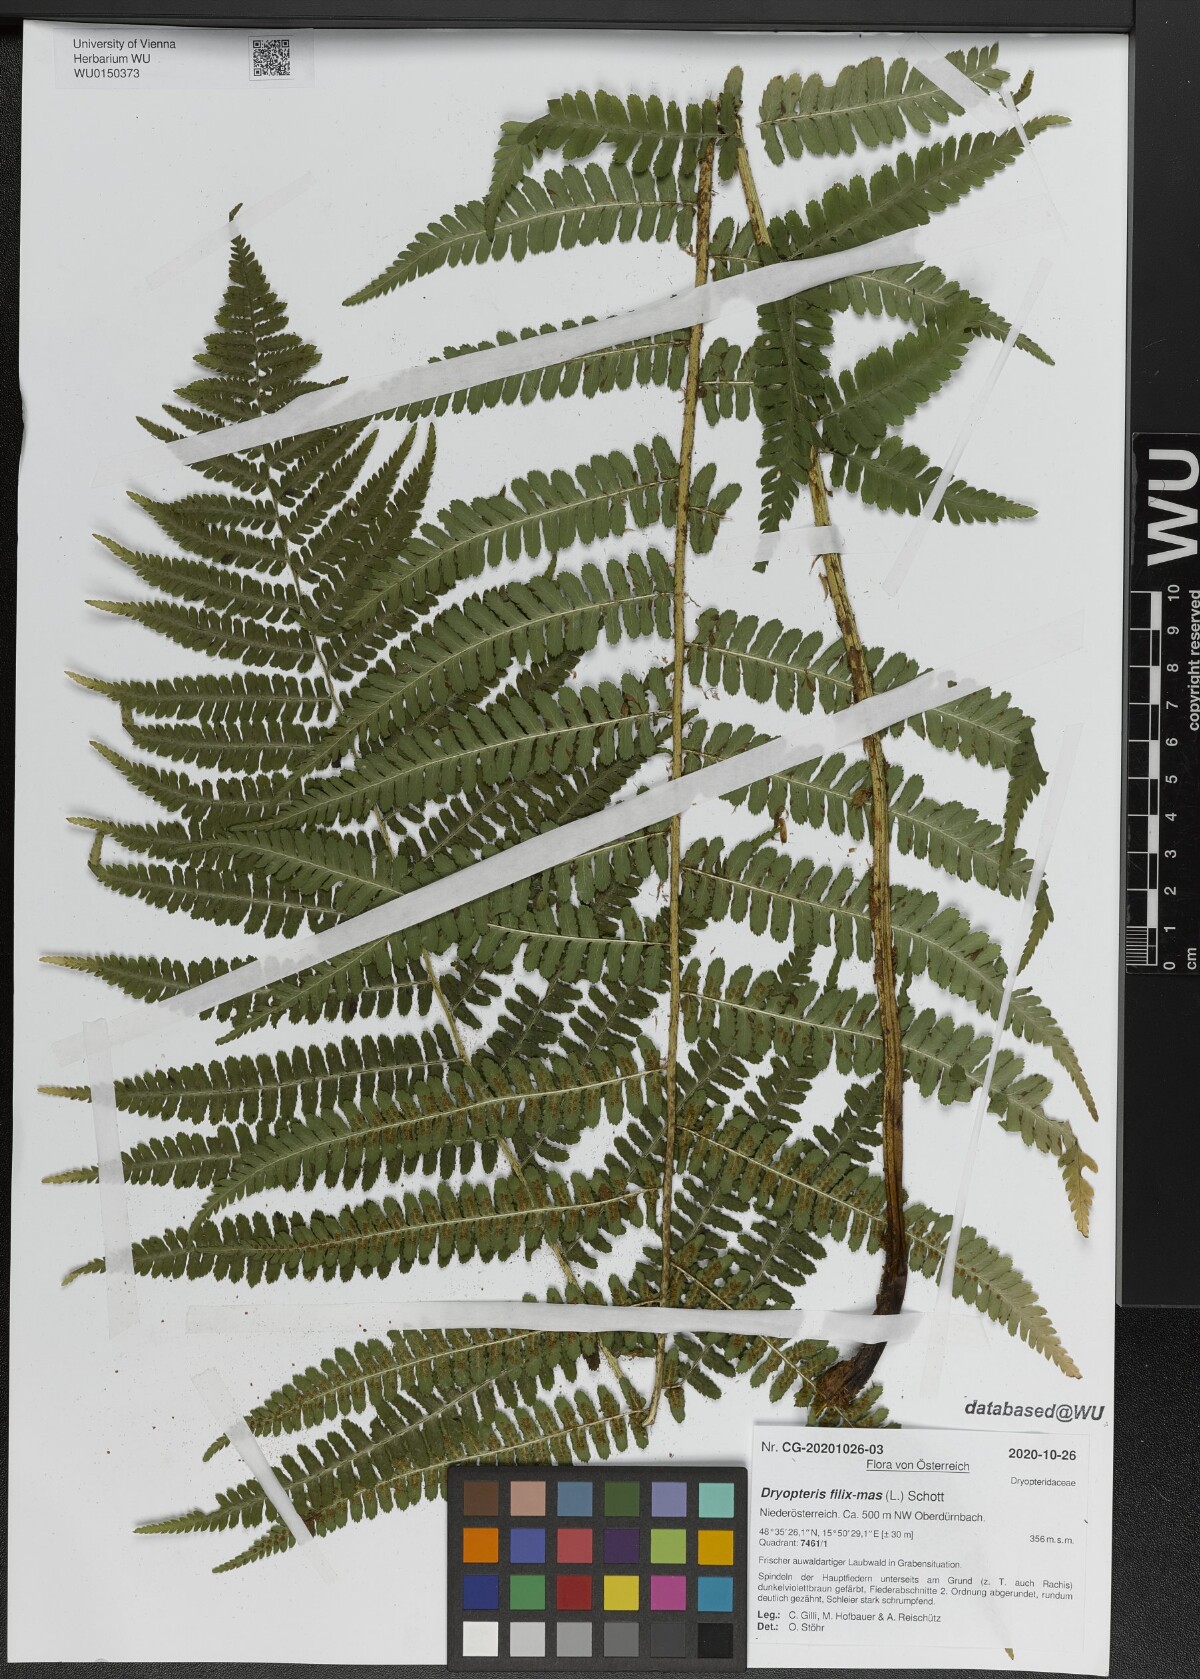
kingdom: Plantae
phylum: Tracheophyta
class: Polypodiopsida
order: Polypodiales
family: Dryopteridaceae
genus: Dryopteris
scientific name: Dryopteris filix-mas
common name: Male fern
